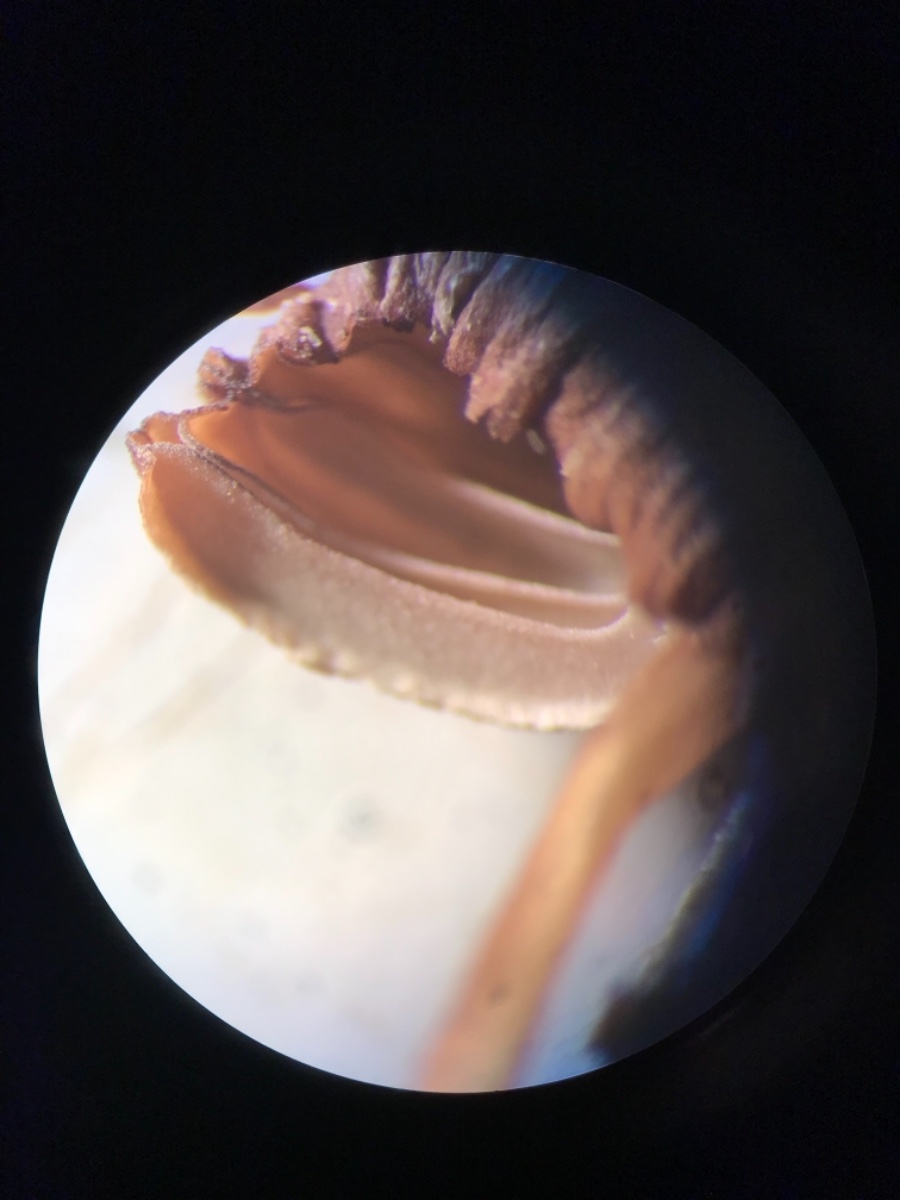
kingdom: Fungi
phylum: Basidiomycota
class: Agaricomycetes
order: Agaricales
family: Mycenaceae
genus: Mycena
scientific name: Mycena olivaceomarginata
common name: brunægget huesvamp
